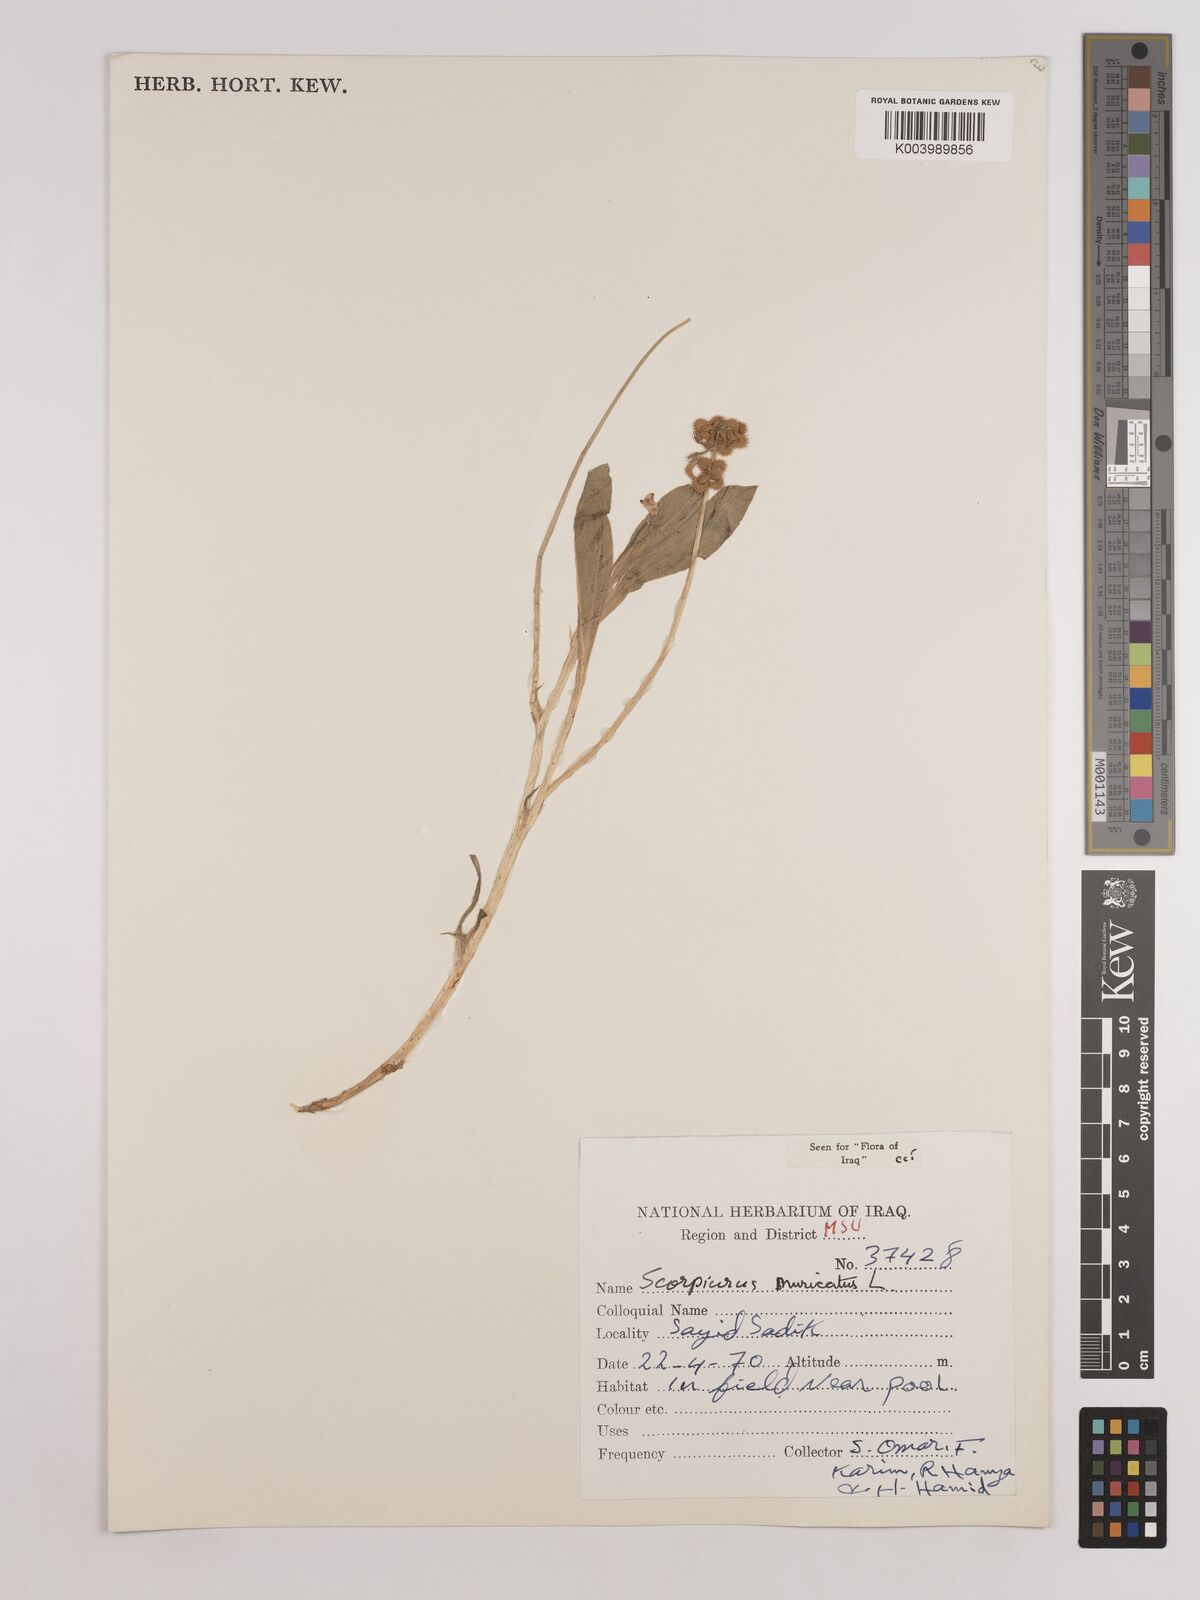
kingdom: Plantae
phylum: Tracheophyta
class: Magnoliopsida
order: Fabales
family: Fabaceae
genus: Scorpiurus
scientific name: Scorpiurus muricatus
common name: Caterpillar-plant
